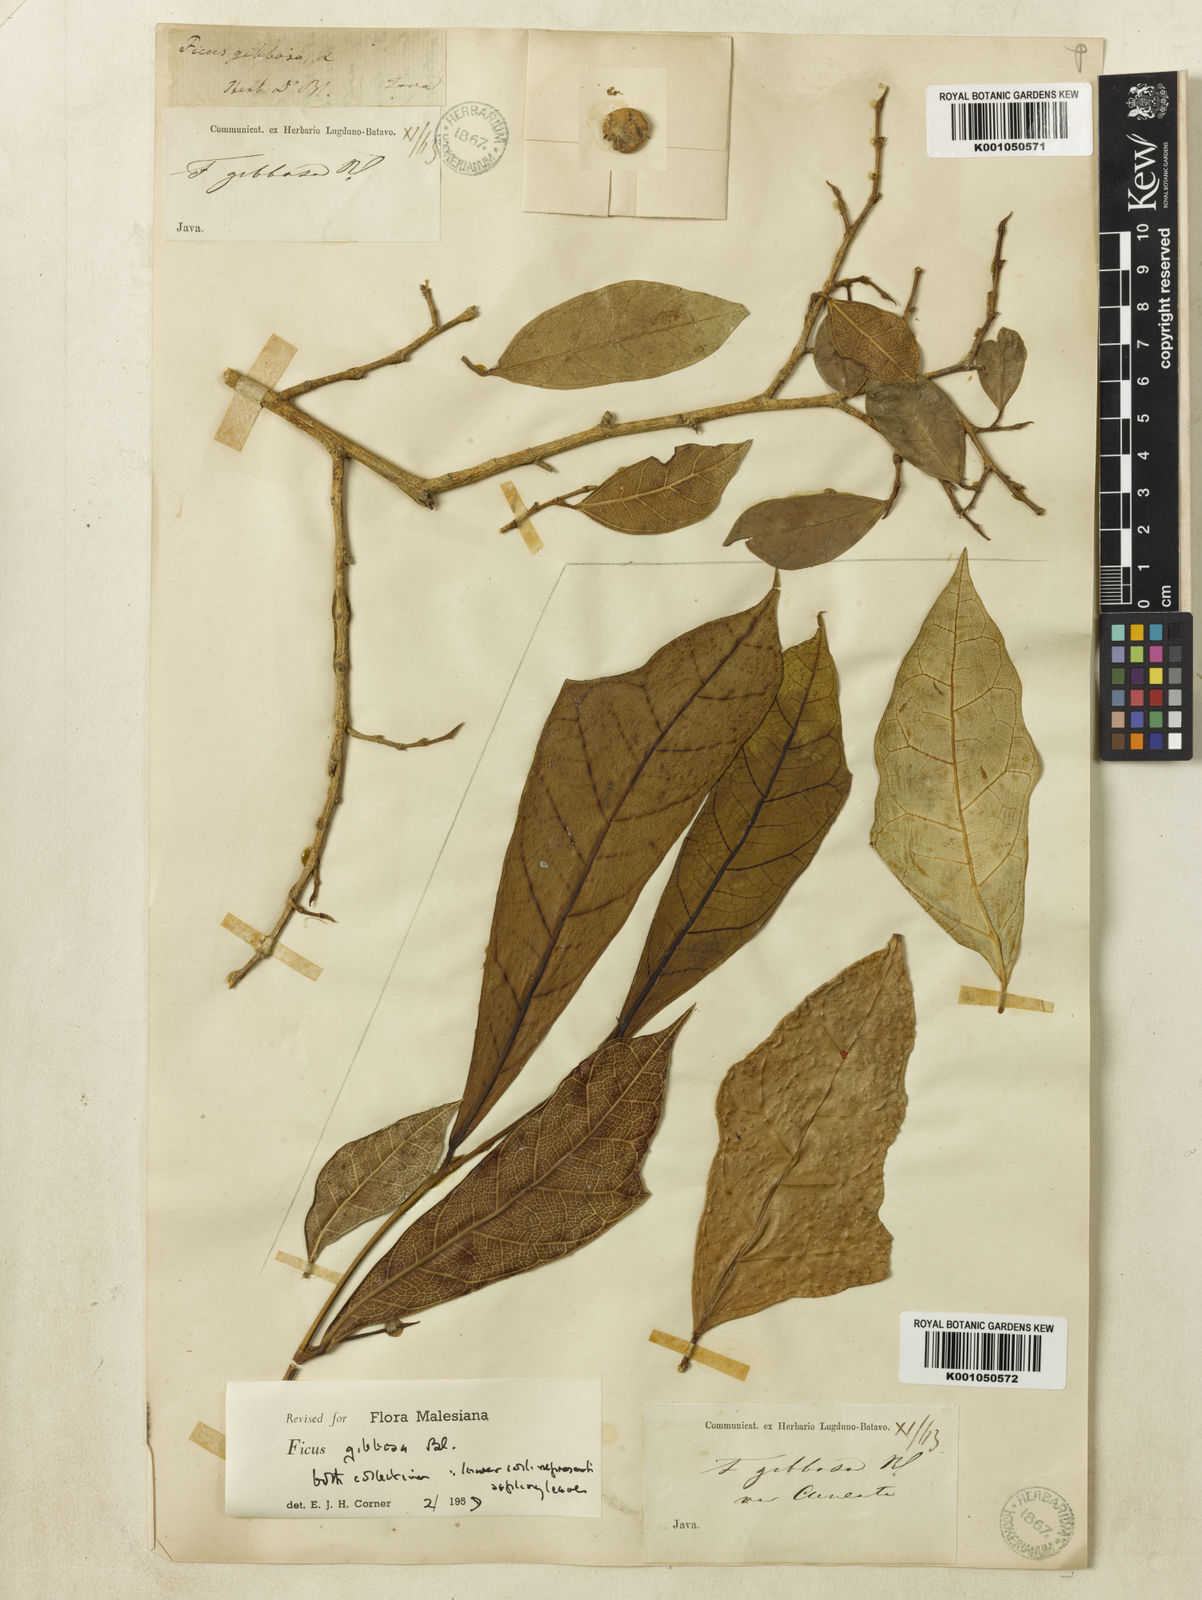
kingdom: Plantae
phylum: Tracheophyta
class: Magnoliopsida
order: Rosales
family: Moraceae
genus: Ficus
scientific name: Ficus tinctoria
